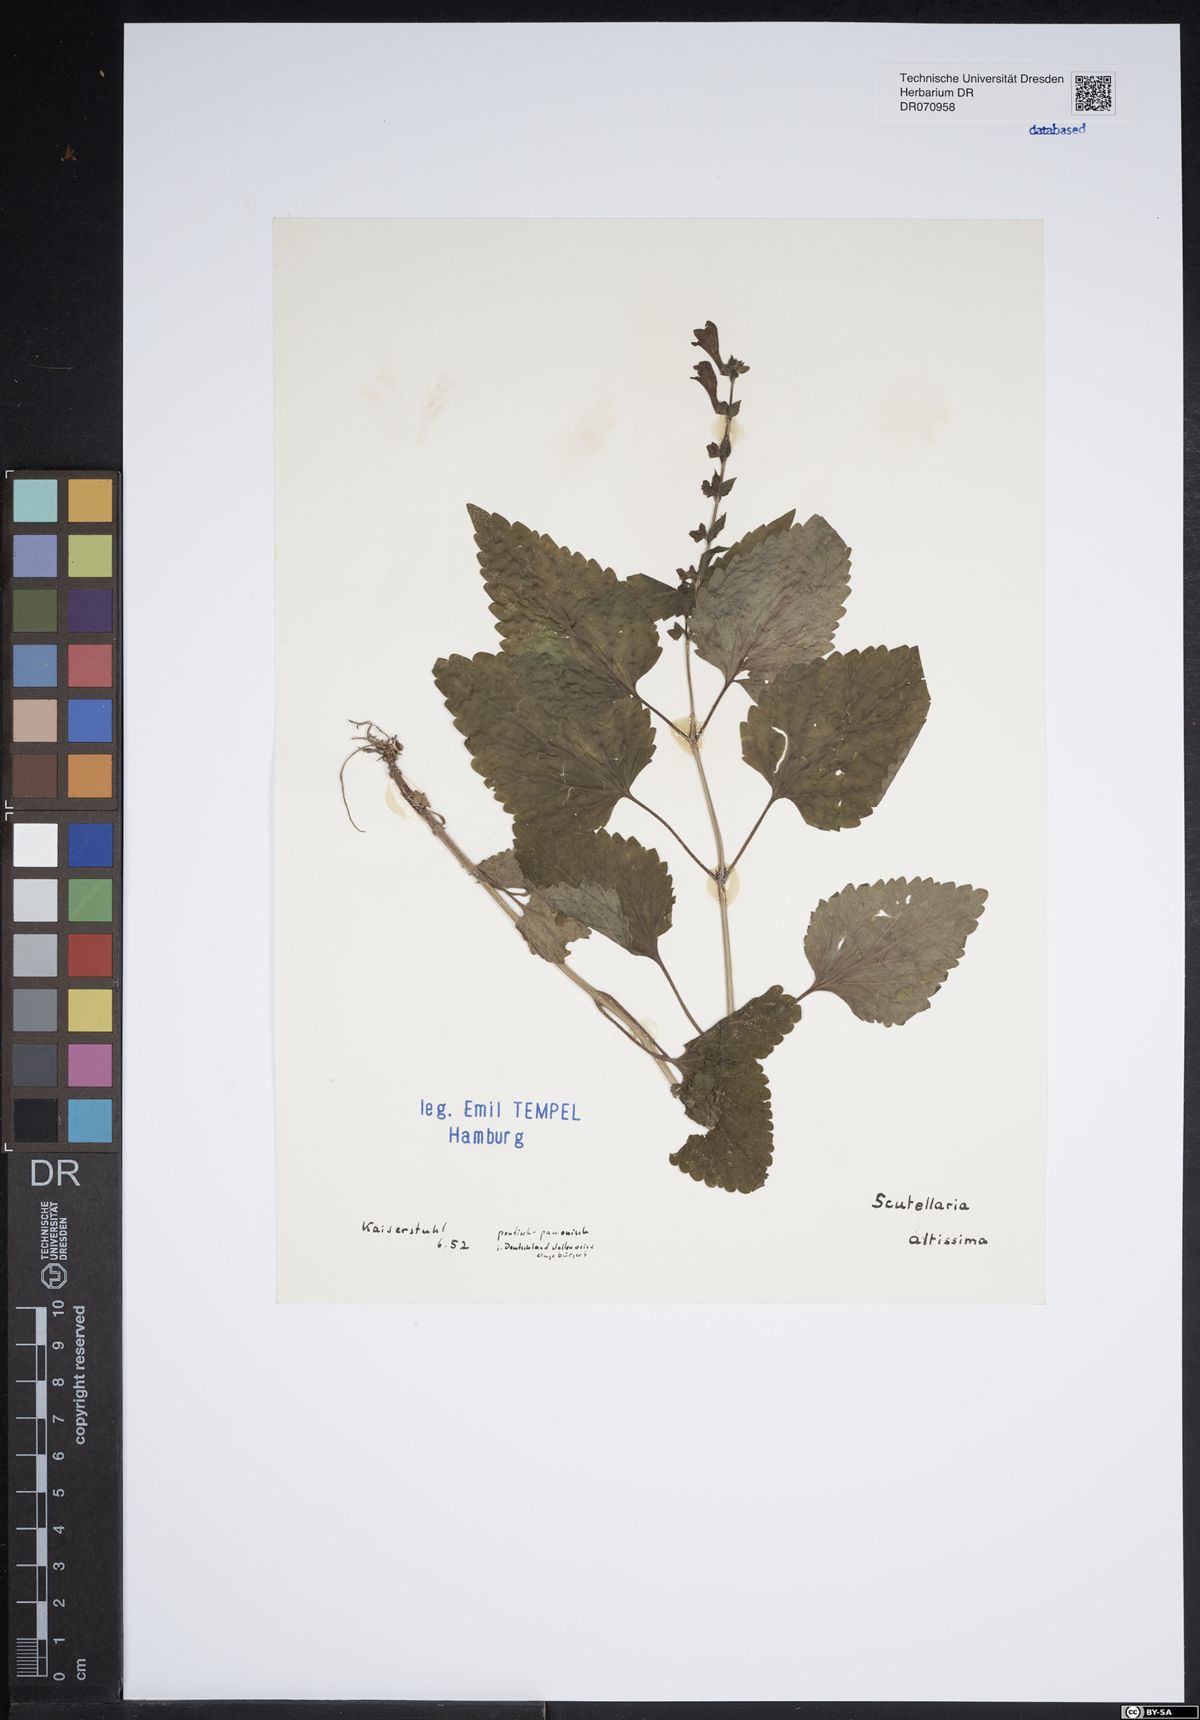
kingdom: Plantae
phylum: Tracheophyta
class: Magnoliopsida
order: Lamiales
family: Lamiaceae
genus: Scutellaria
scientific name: Scutellaria altissima
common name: Somerset skullcap
